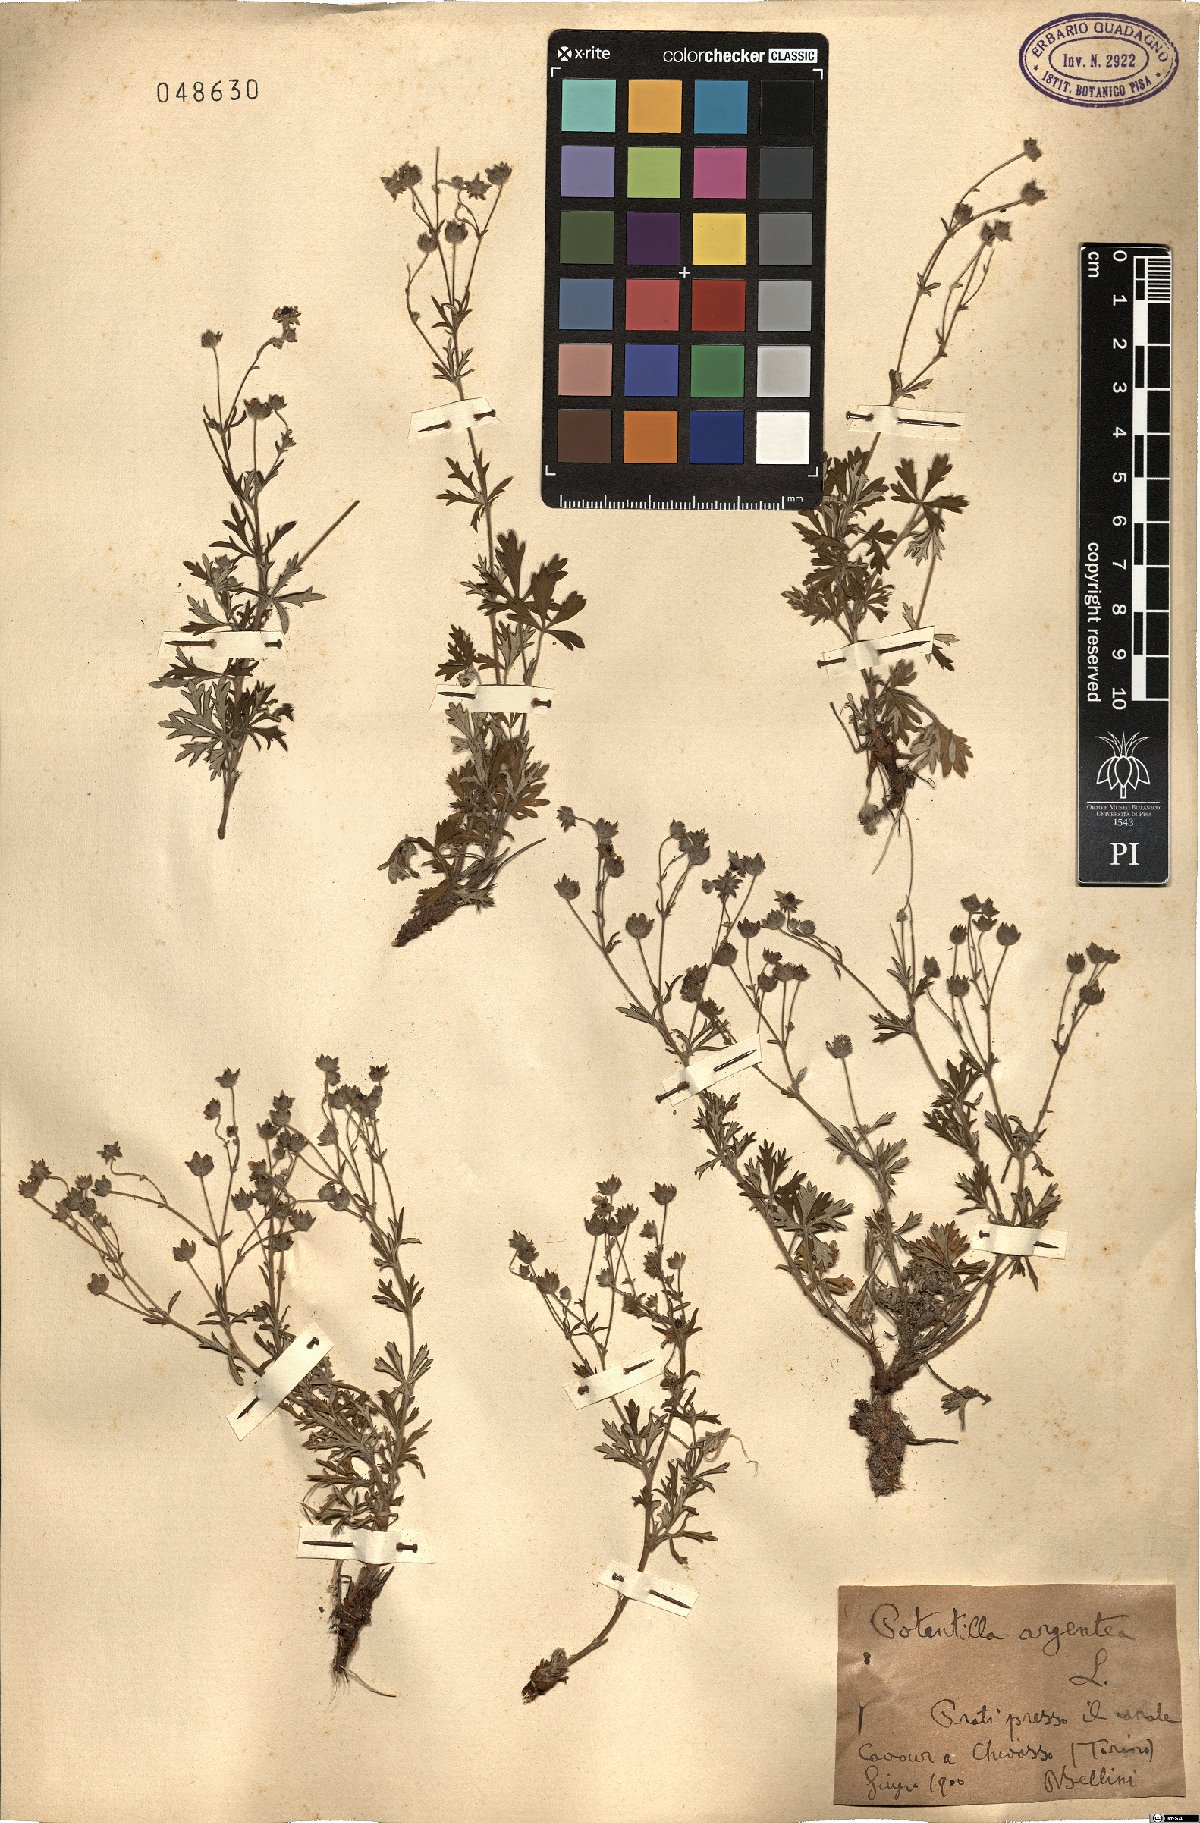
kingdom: Plantae
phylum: Tracheophyta
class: Magnoliopsida
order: Rosales
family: Rosaceae
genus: Potentilla
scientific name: Potentilla argentea
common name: Hoary cinquefoil
